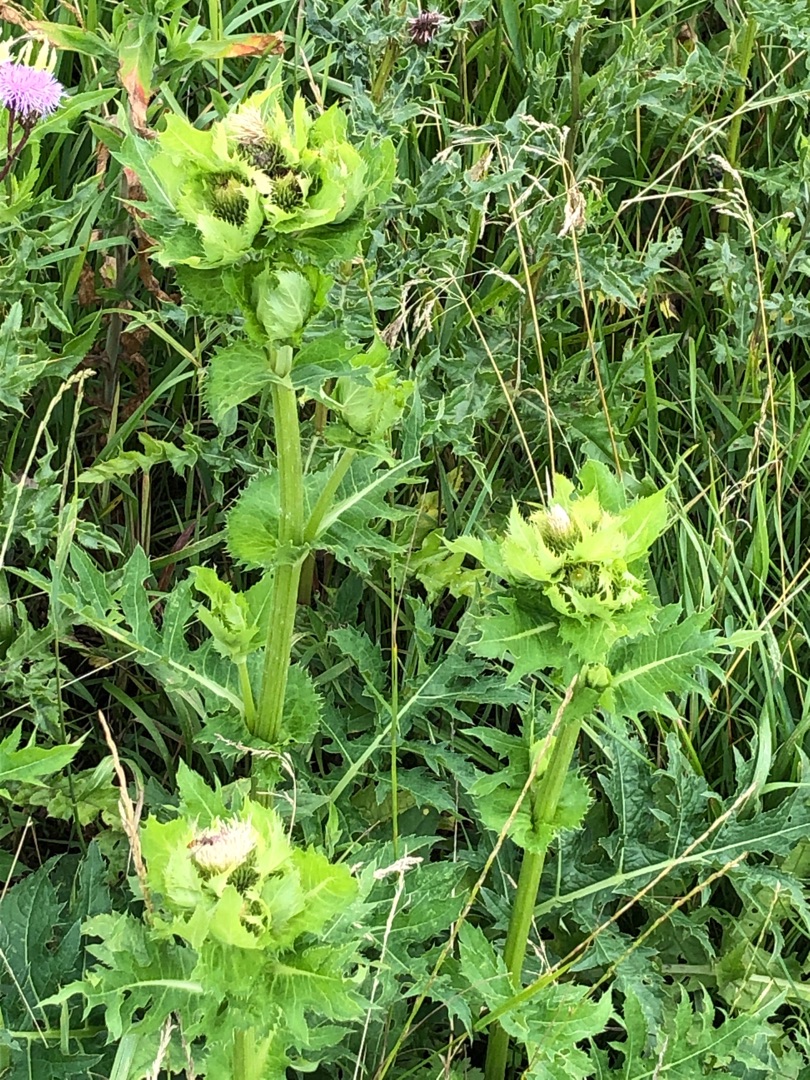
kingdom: Plantae
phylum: Tracheophyta
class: Magnoliopsida
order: Asterales
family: Asteraceae
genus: Cirsium
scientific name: Cirsium oleraceum
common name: Kål-tidsel
